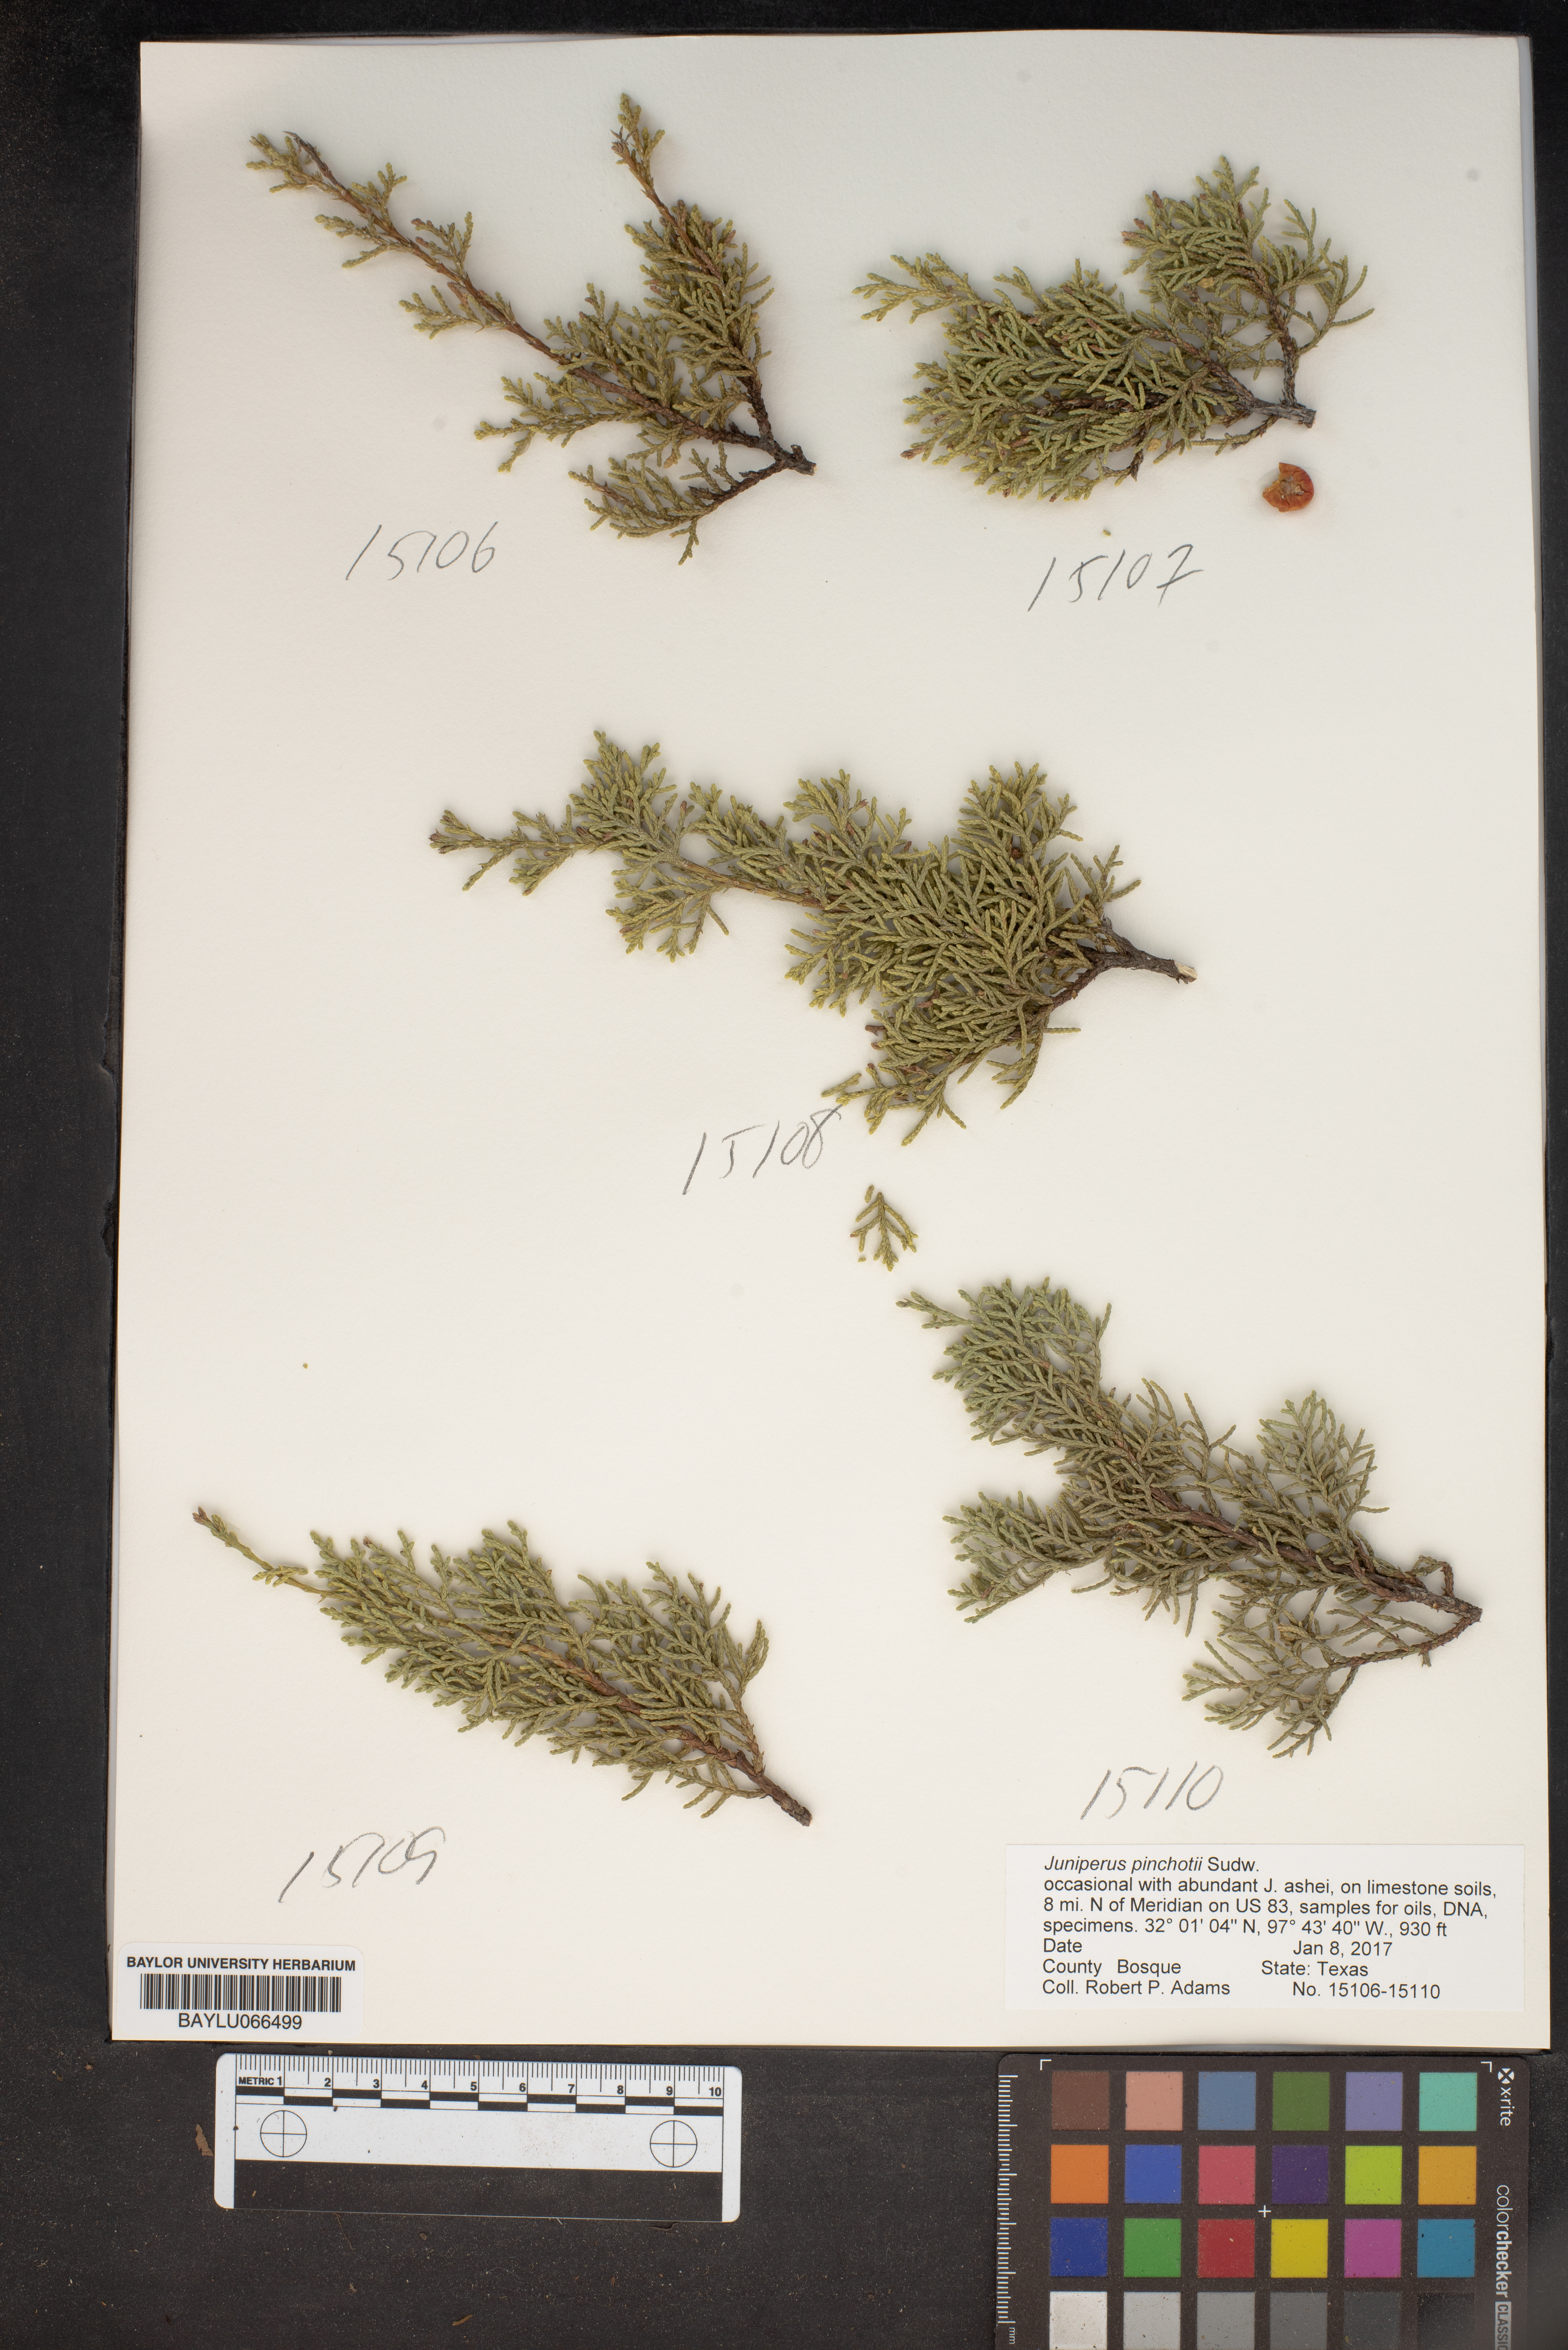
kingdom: Plantae
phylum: Tracheophyta
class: Pinopsida
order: Pinales
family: Cupressaceae
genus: Juniperus
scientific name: Juniperus pinchotii
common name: Pinchot juniper
